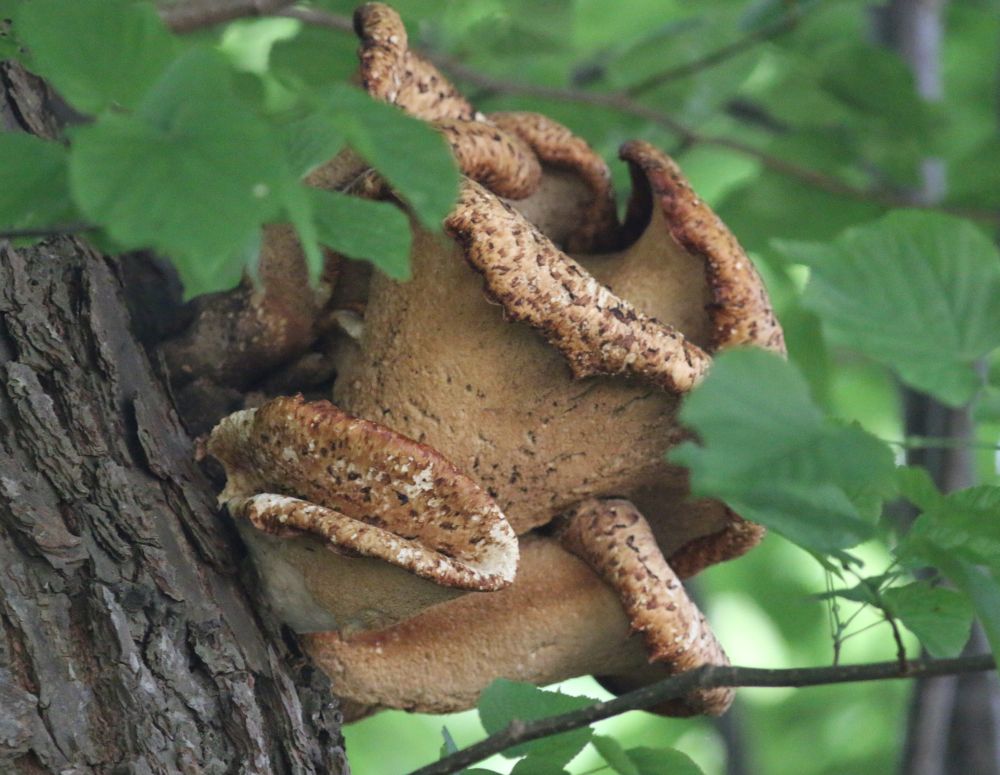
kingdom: Fungi
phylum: Basidiomycota
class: Agaricomycetes
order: Polyporales
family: Polyporaceae
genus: Cerioporus
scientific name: Cerioporus squamosus
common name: skællet stilkporesvamp
